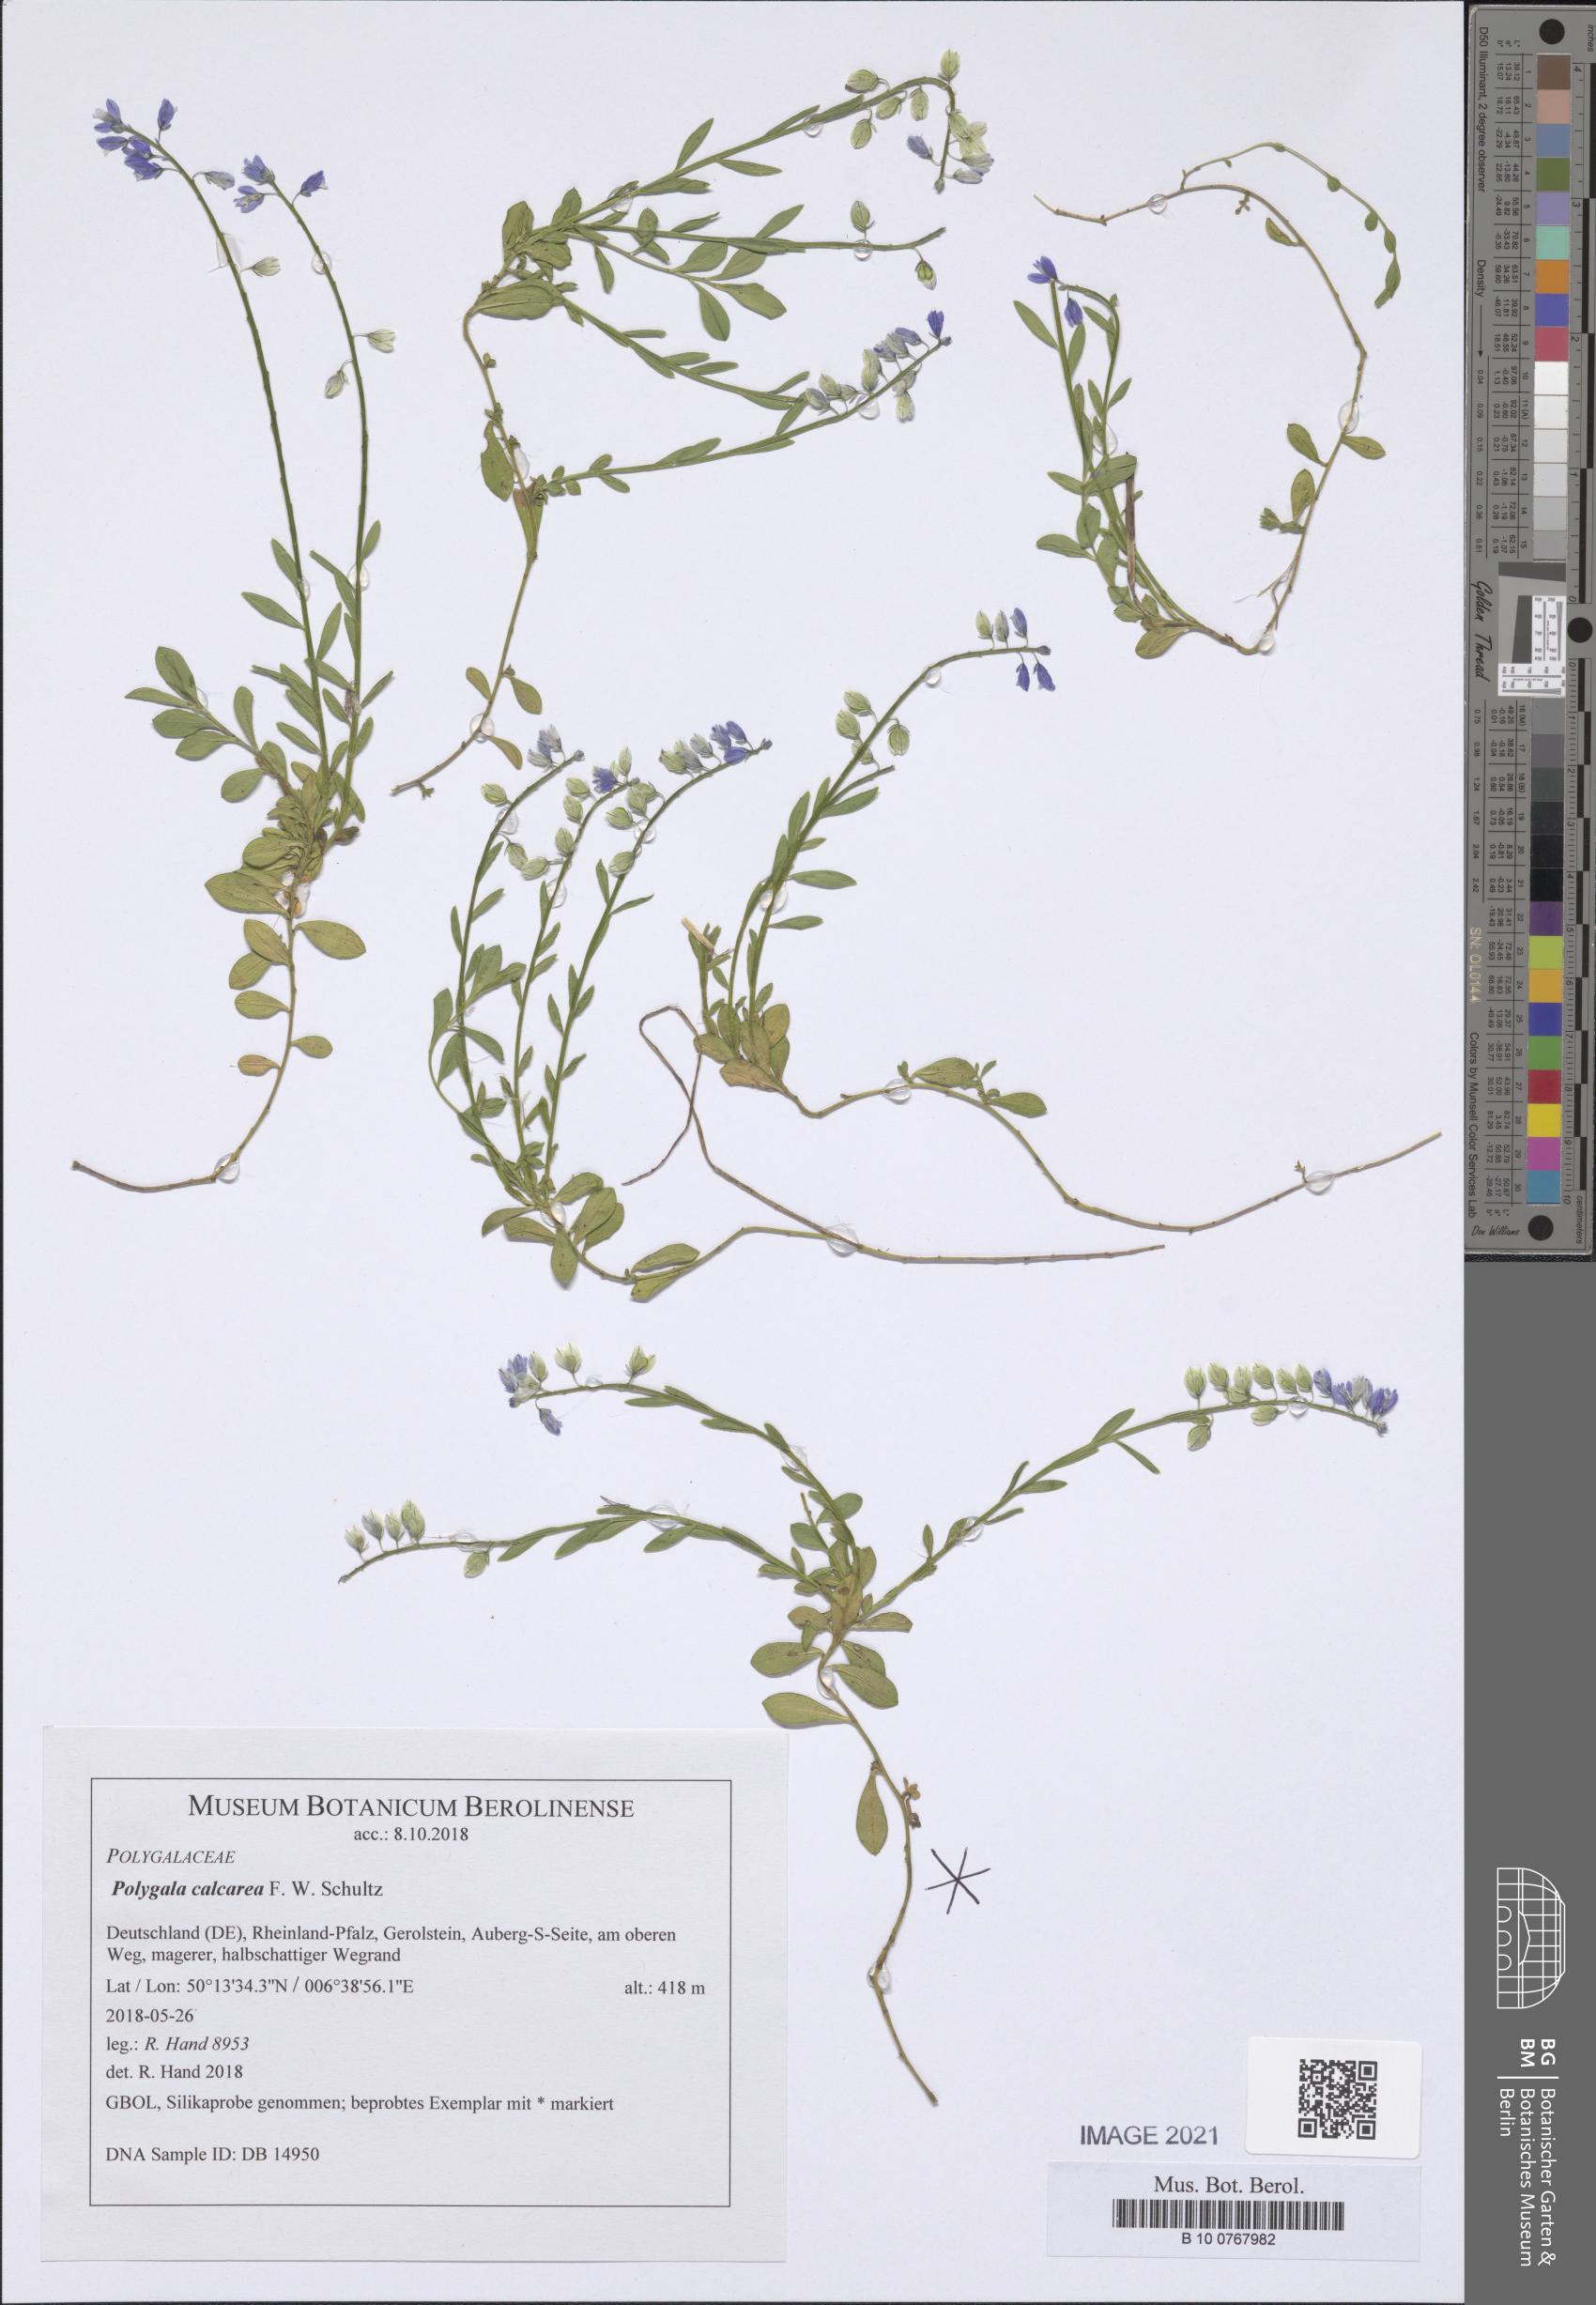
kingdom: Plantae
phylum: Tracheophyta
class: Magnoliopsida
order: Fabales
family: Polygalaceae
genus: Polygala
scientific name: Polygala calcarea
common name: Chalk milkwort
